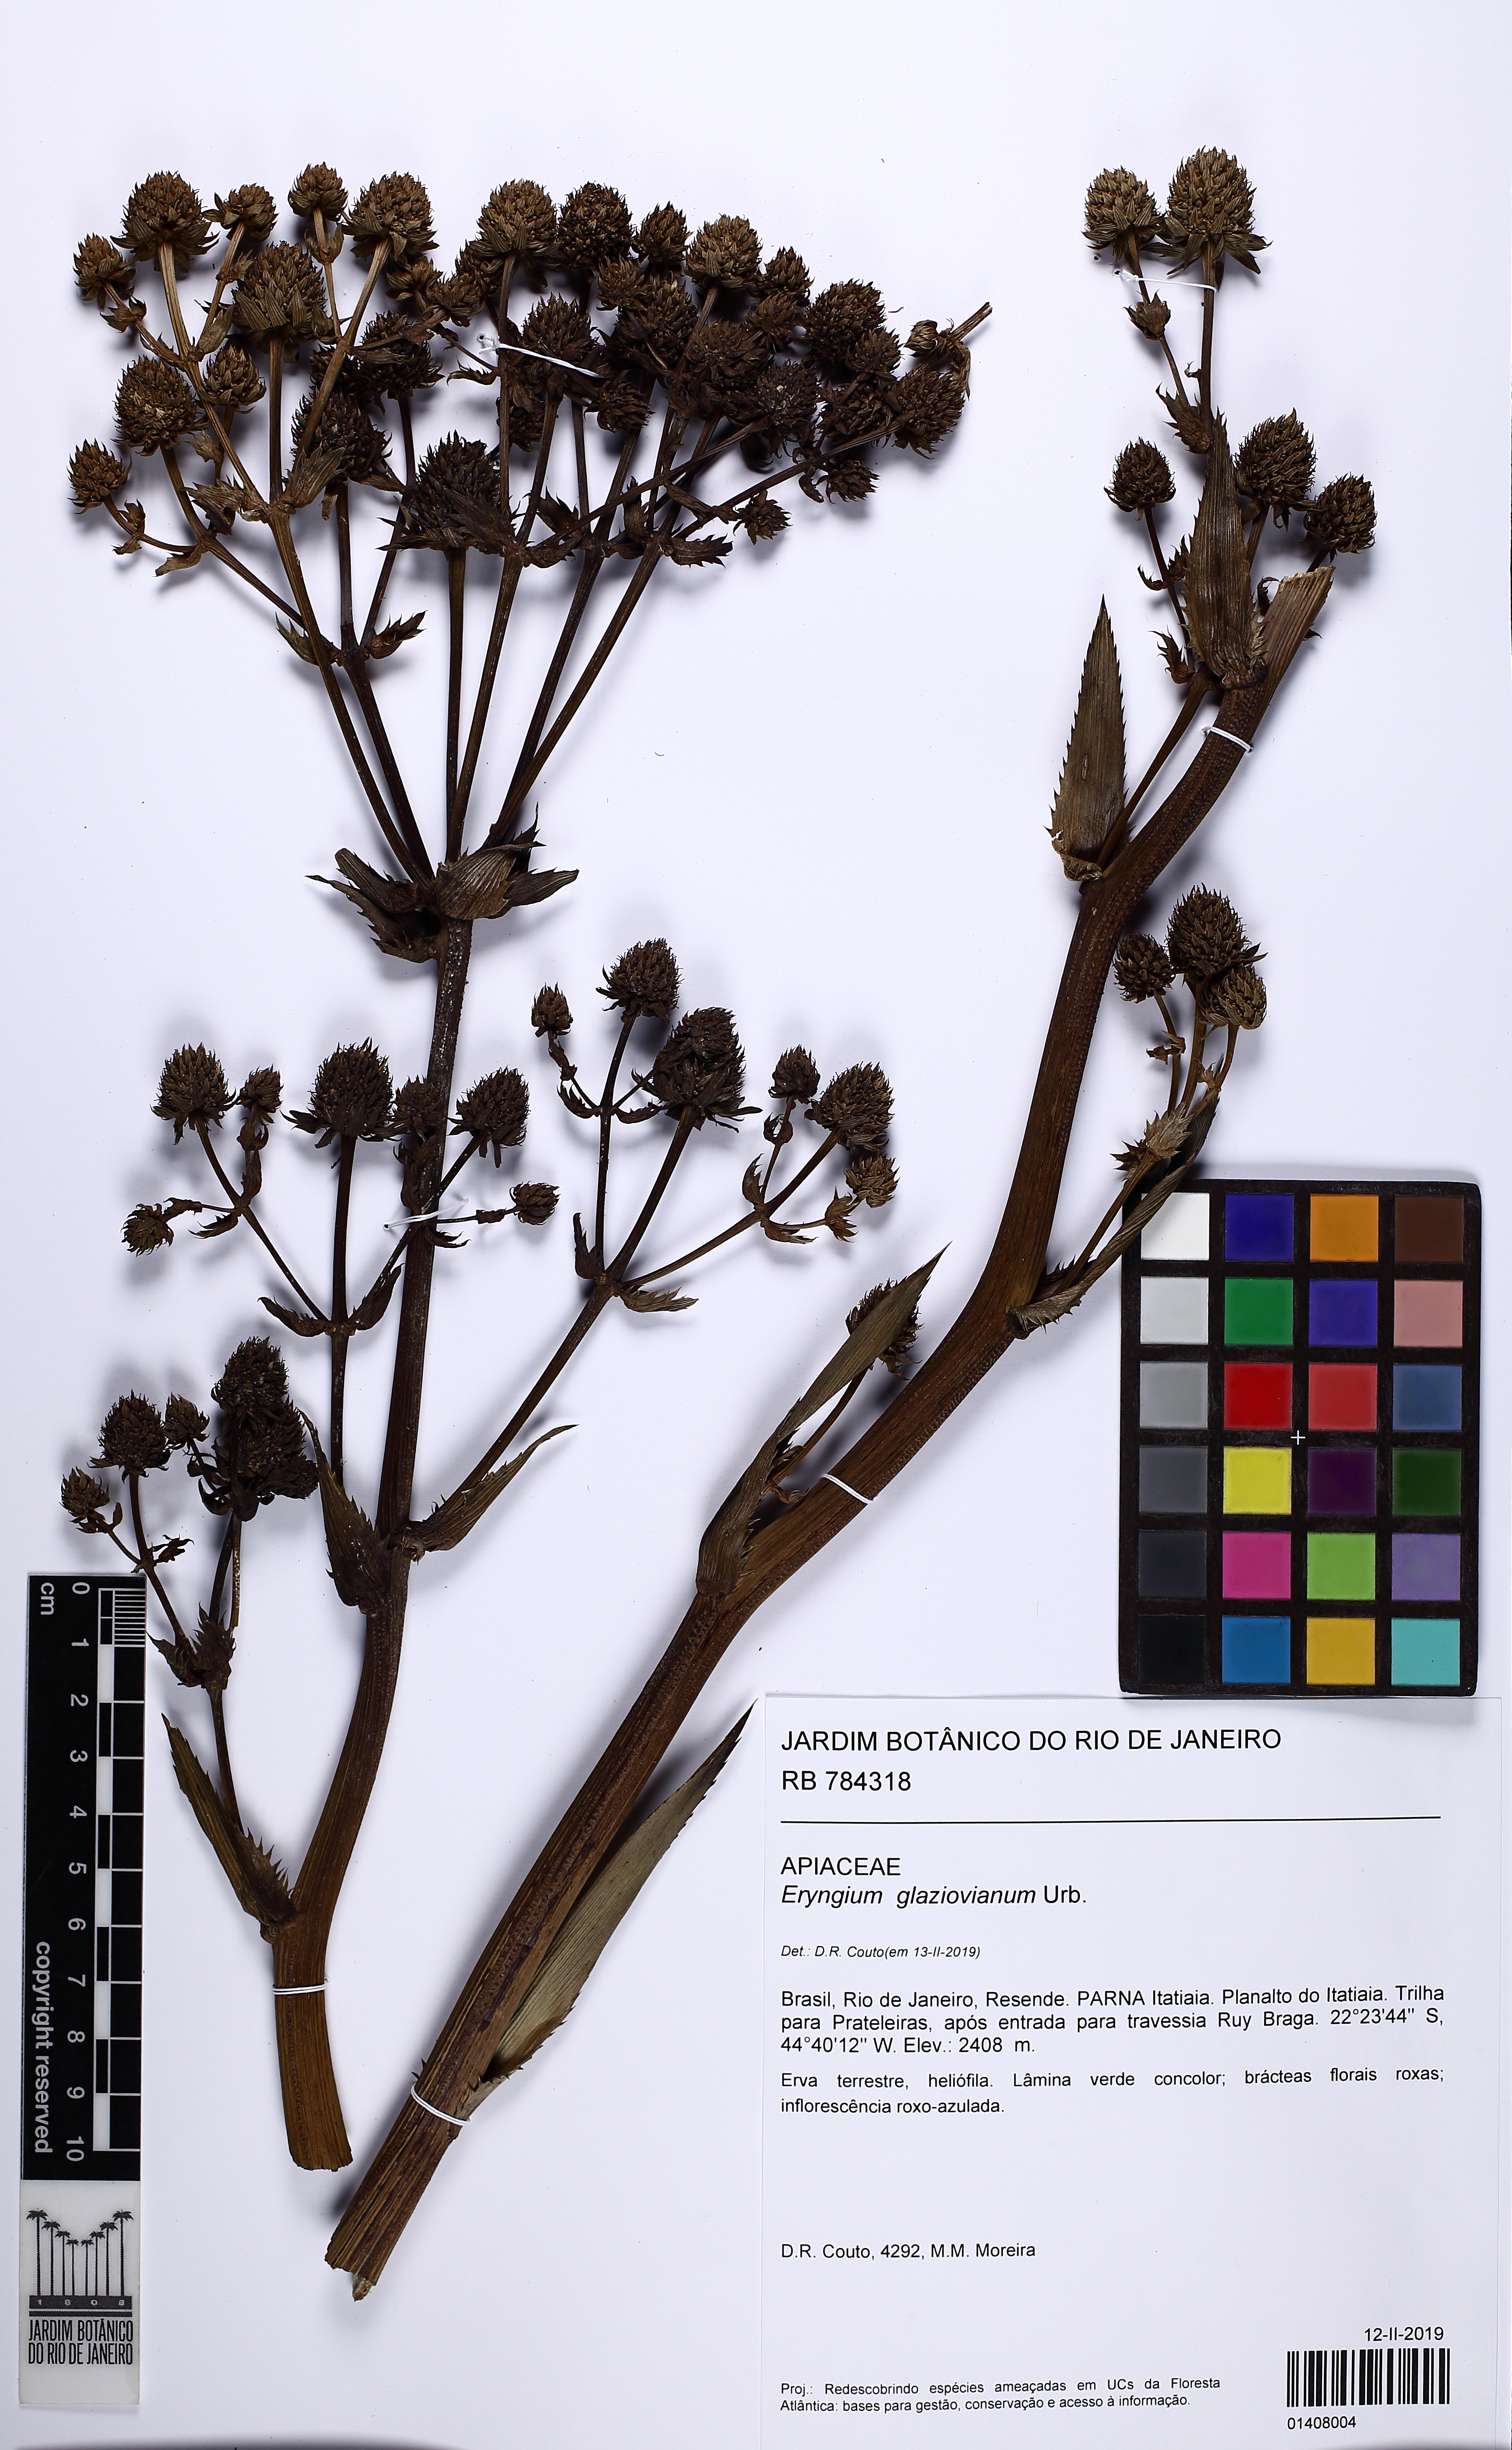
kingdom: Plantae
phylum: Tracheophyta
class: Magnoliopsida
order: Apiales
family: Apiaceae
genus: Eryngium
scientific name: Eryngium glaziovianum
